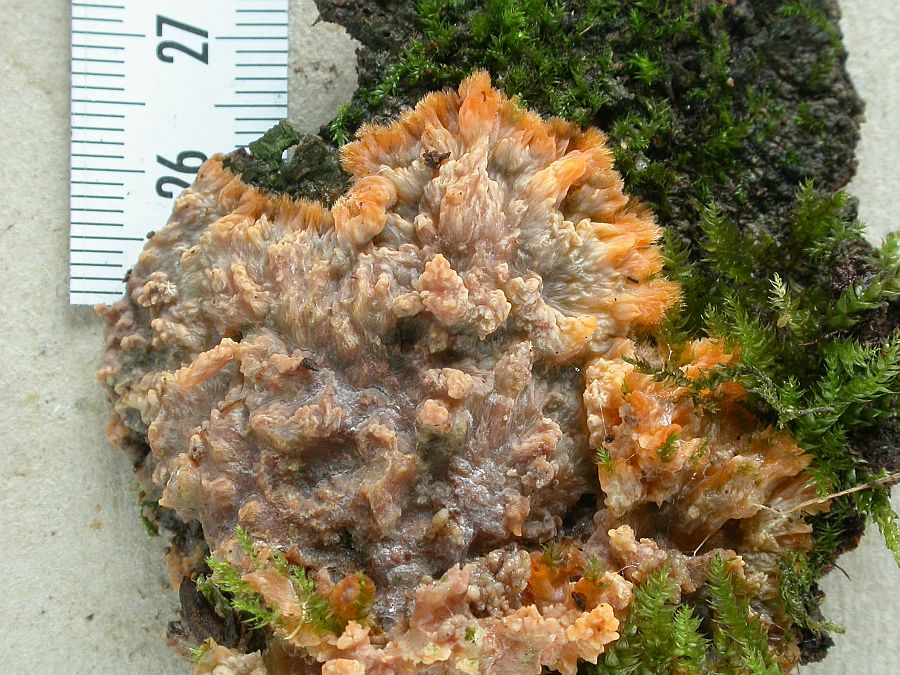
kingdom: Fungi
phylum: Basidiomycota
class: Agaricomycetes
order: Polyporales
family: Meruliaceae
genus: Phlebia
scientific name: Phlebia radiata
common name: stråle-åresvamp
